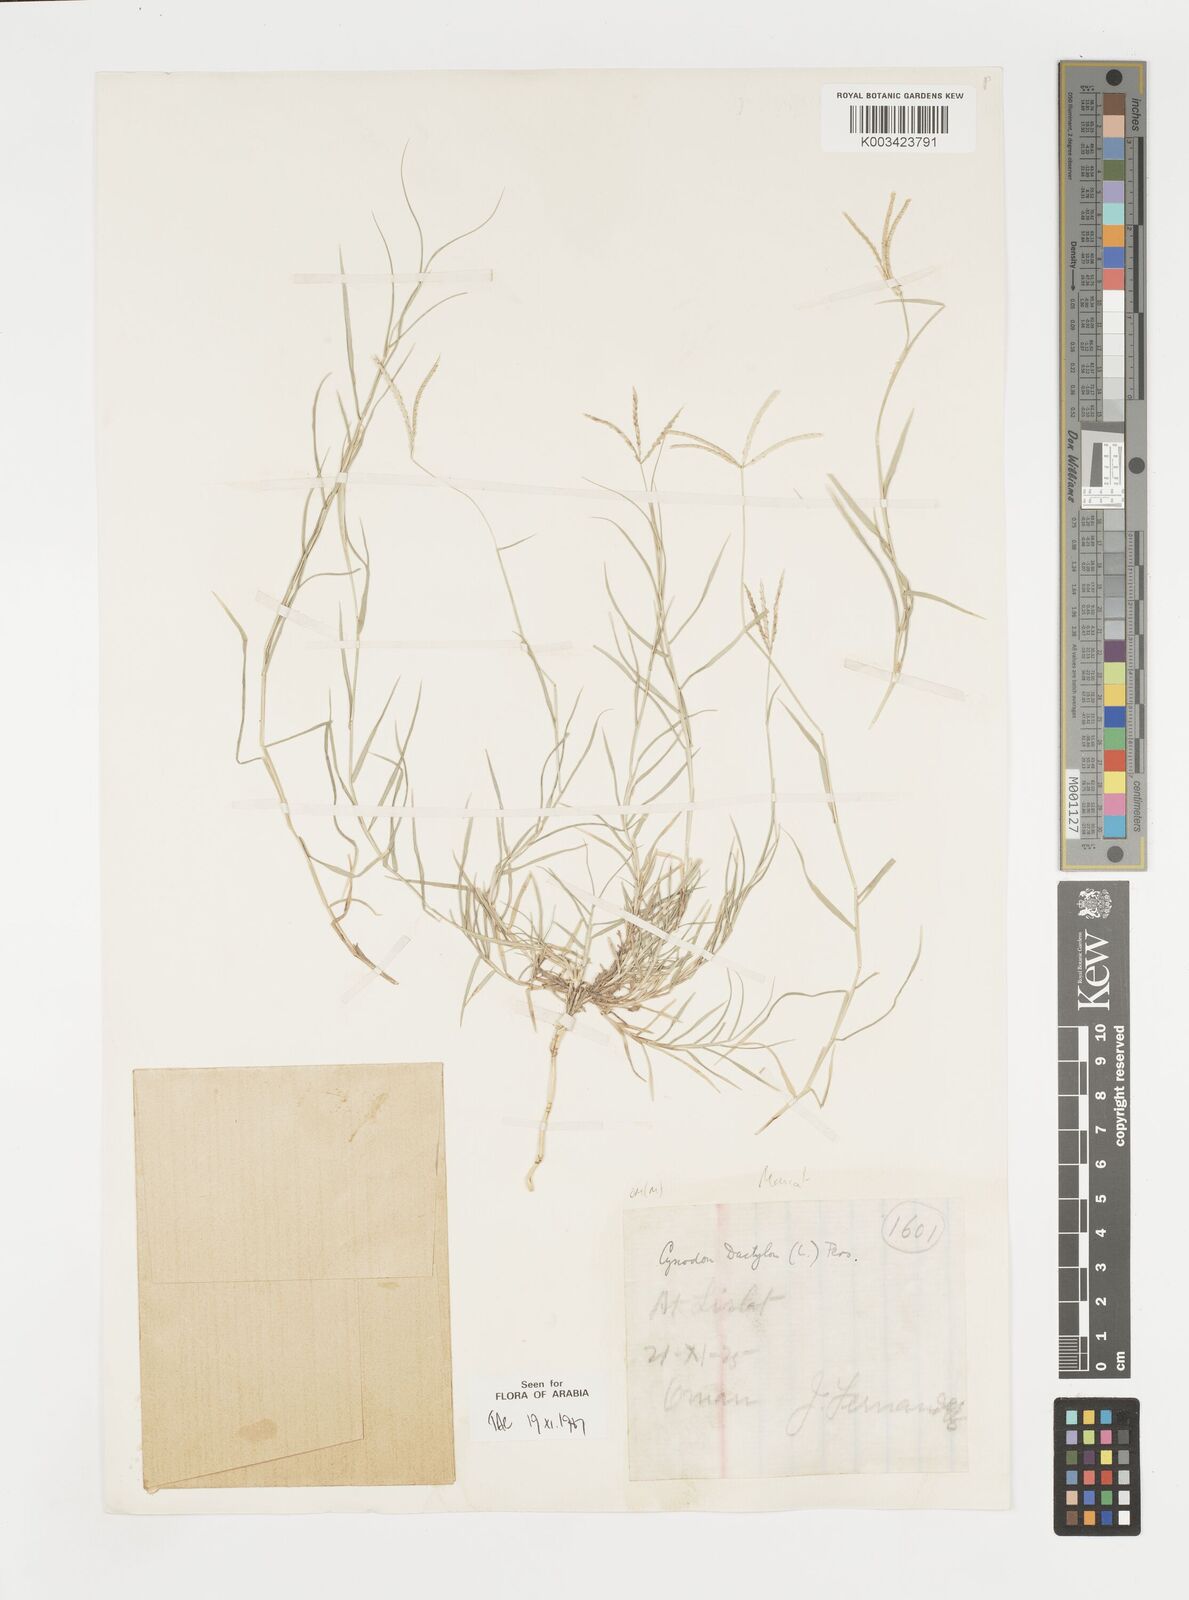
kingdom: Plantae
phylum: Tracheophyta
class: Liliopsida
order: Poales
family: Poaceae
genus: Cynodon
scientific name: Cynodon dactylon
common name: Bermuda grass
